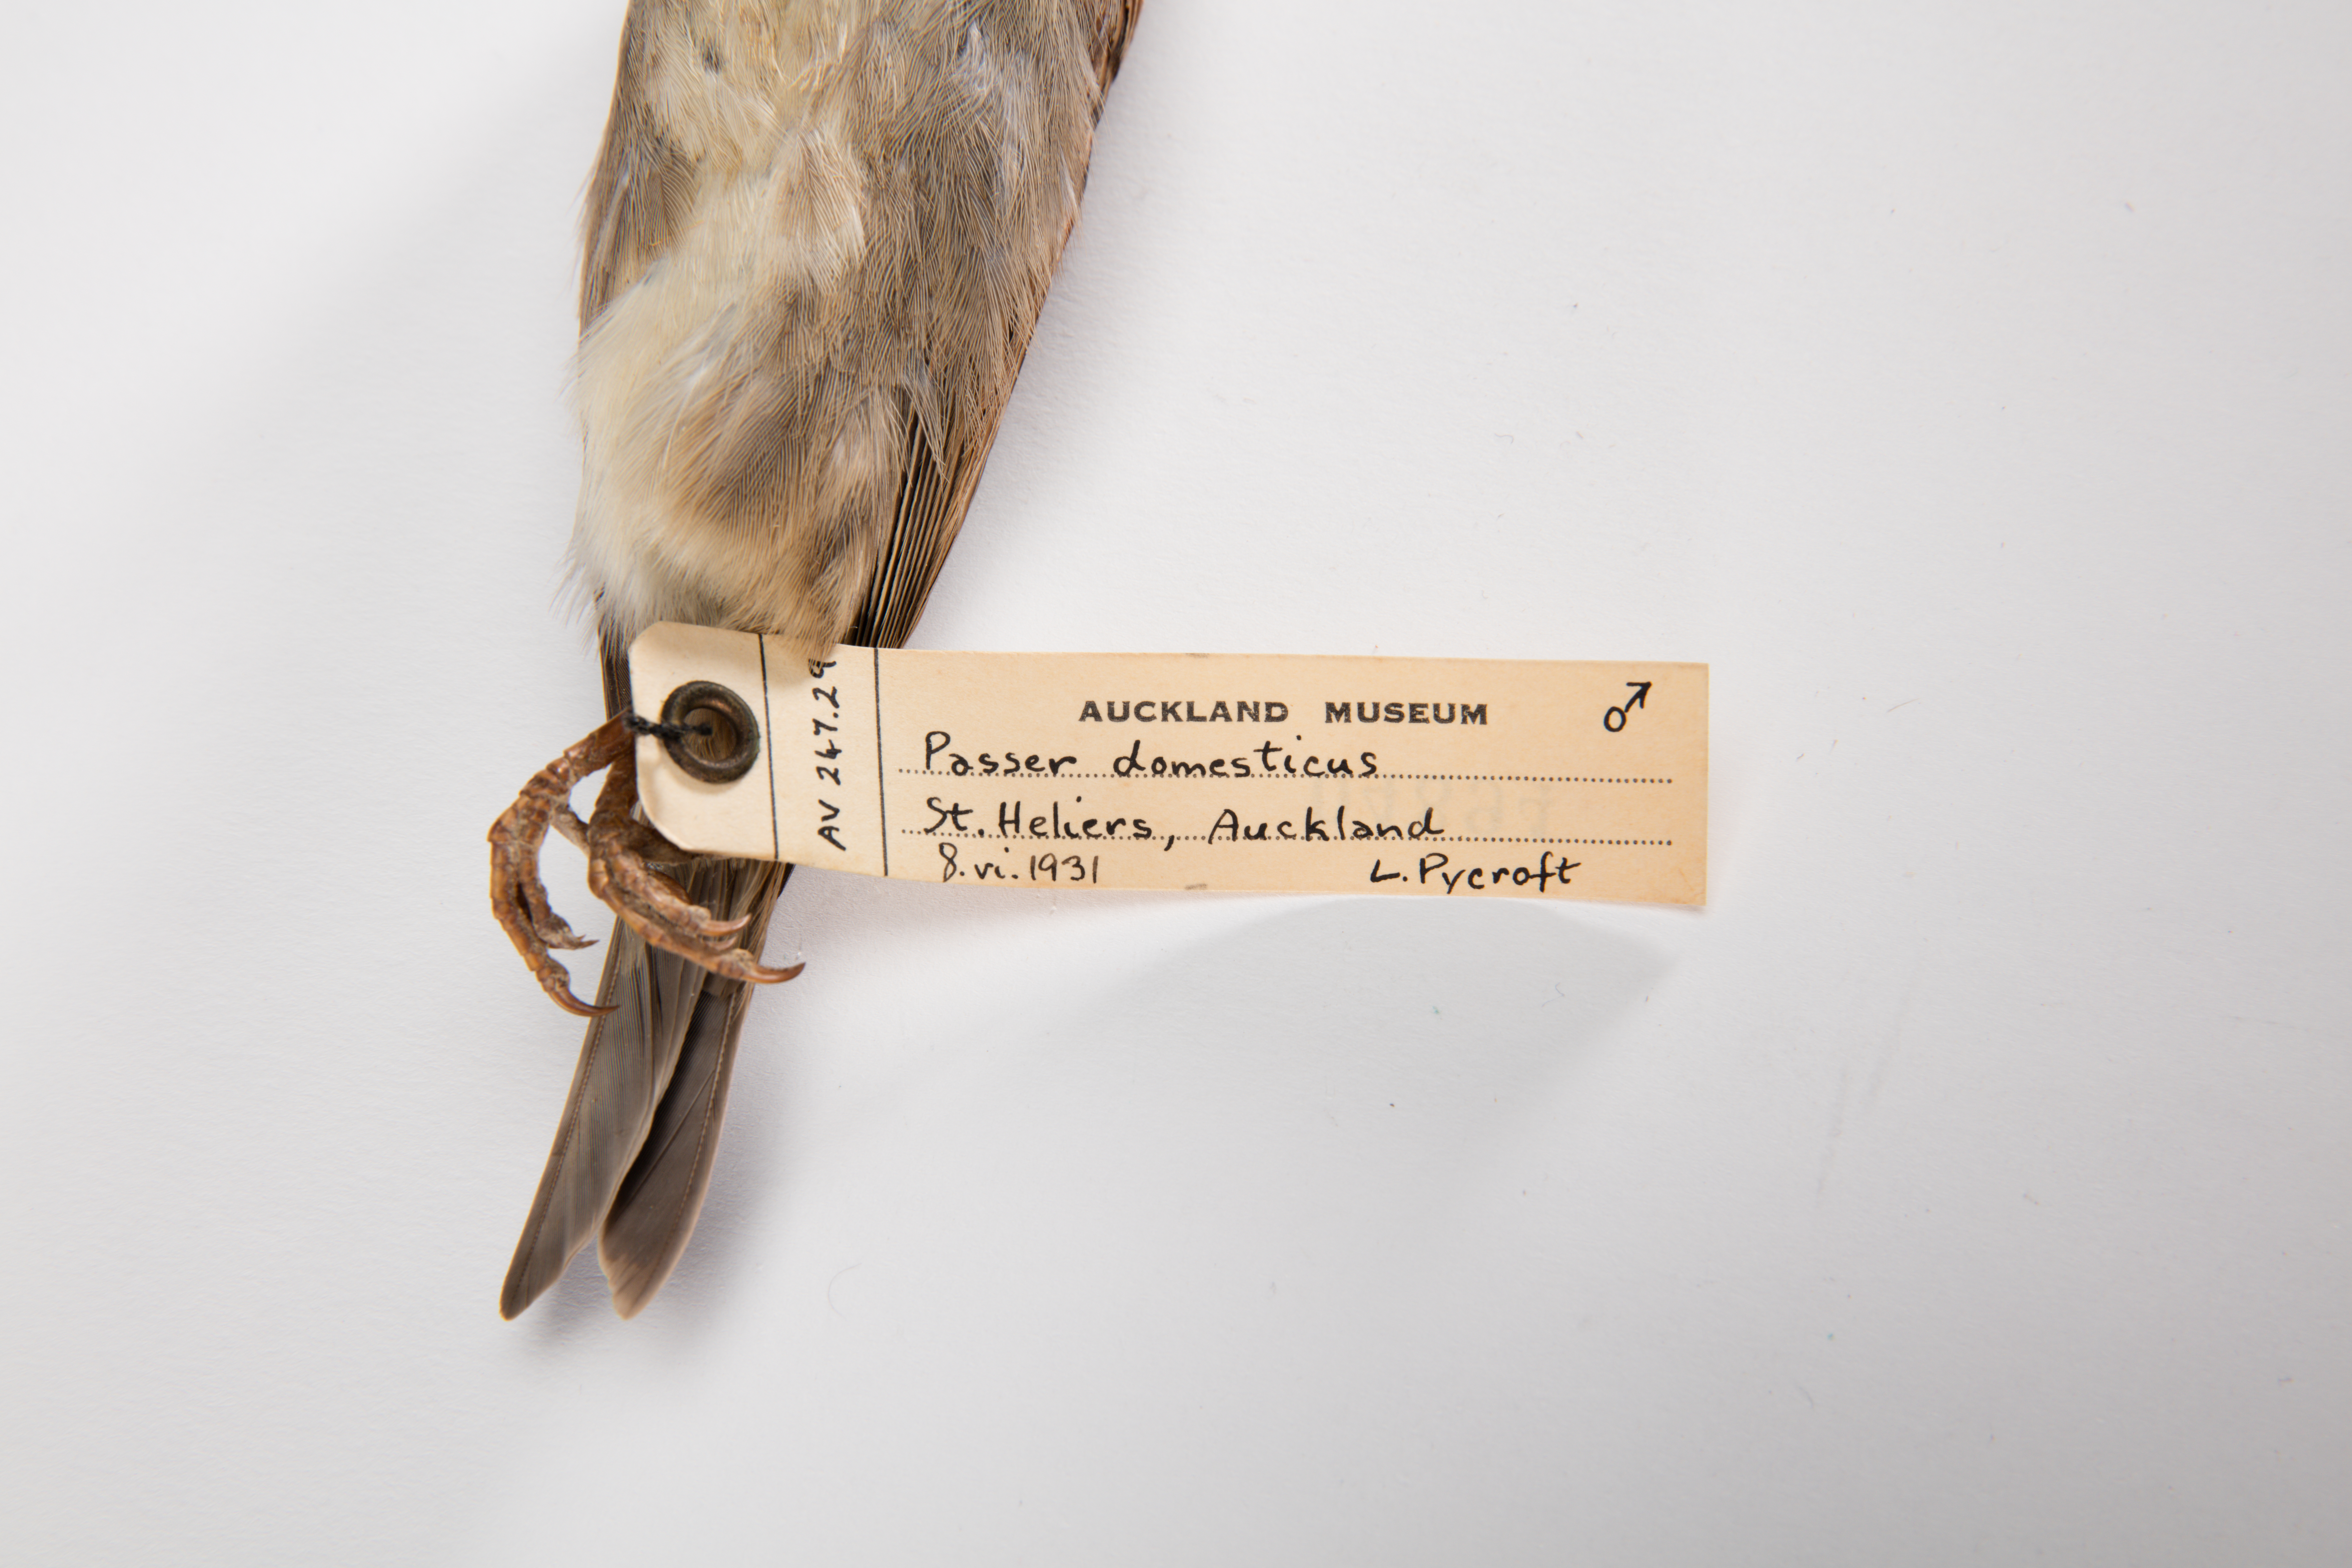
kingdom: Animalia
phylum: Chordata
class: Aves
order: Passeriformes
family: Passeridae
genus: Passer
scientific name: Passer domesticus
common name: House sparrow
